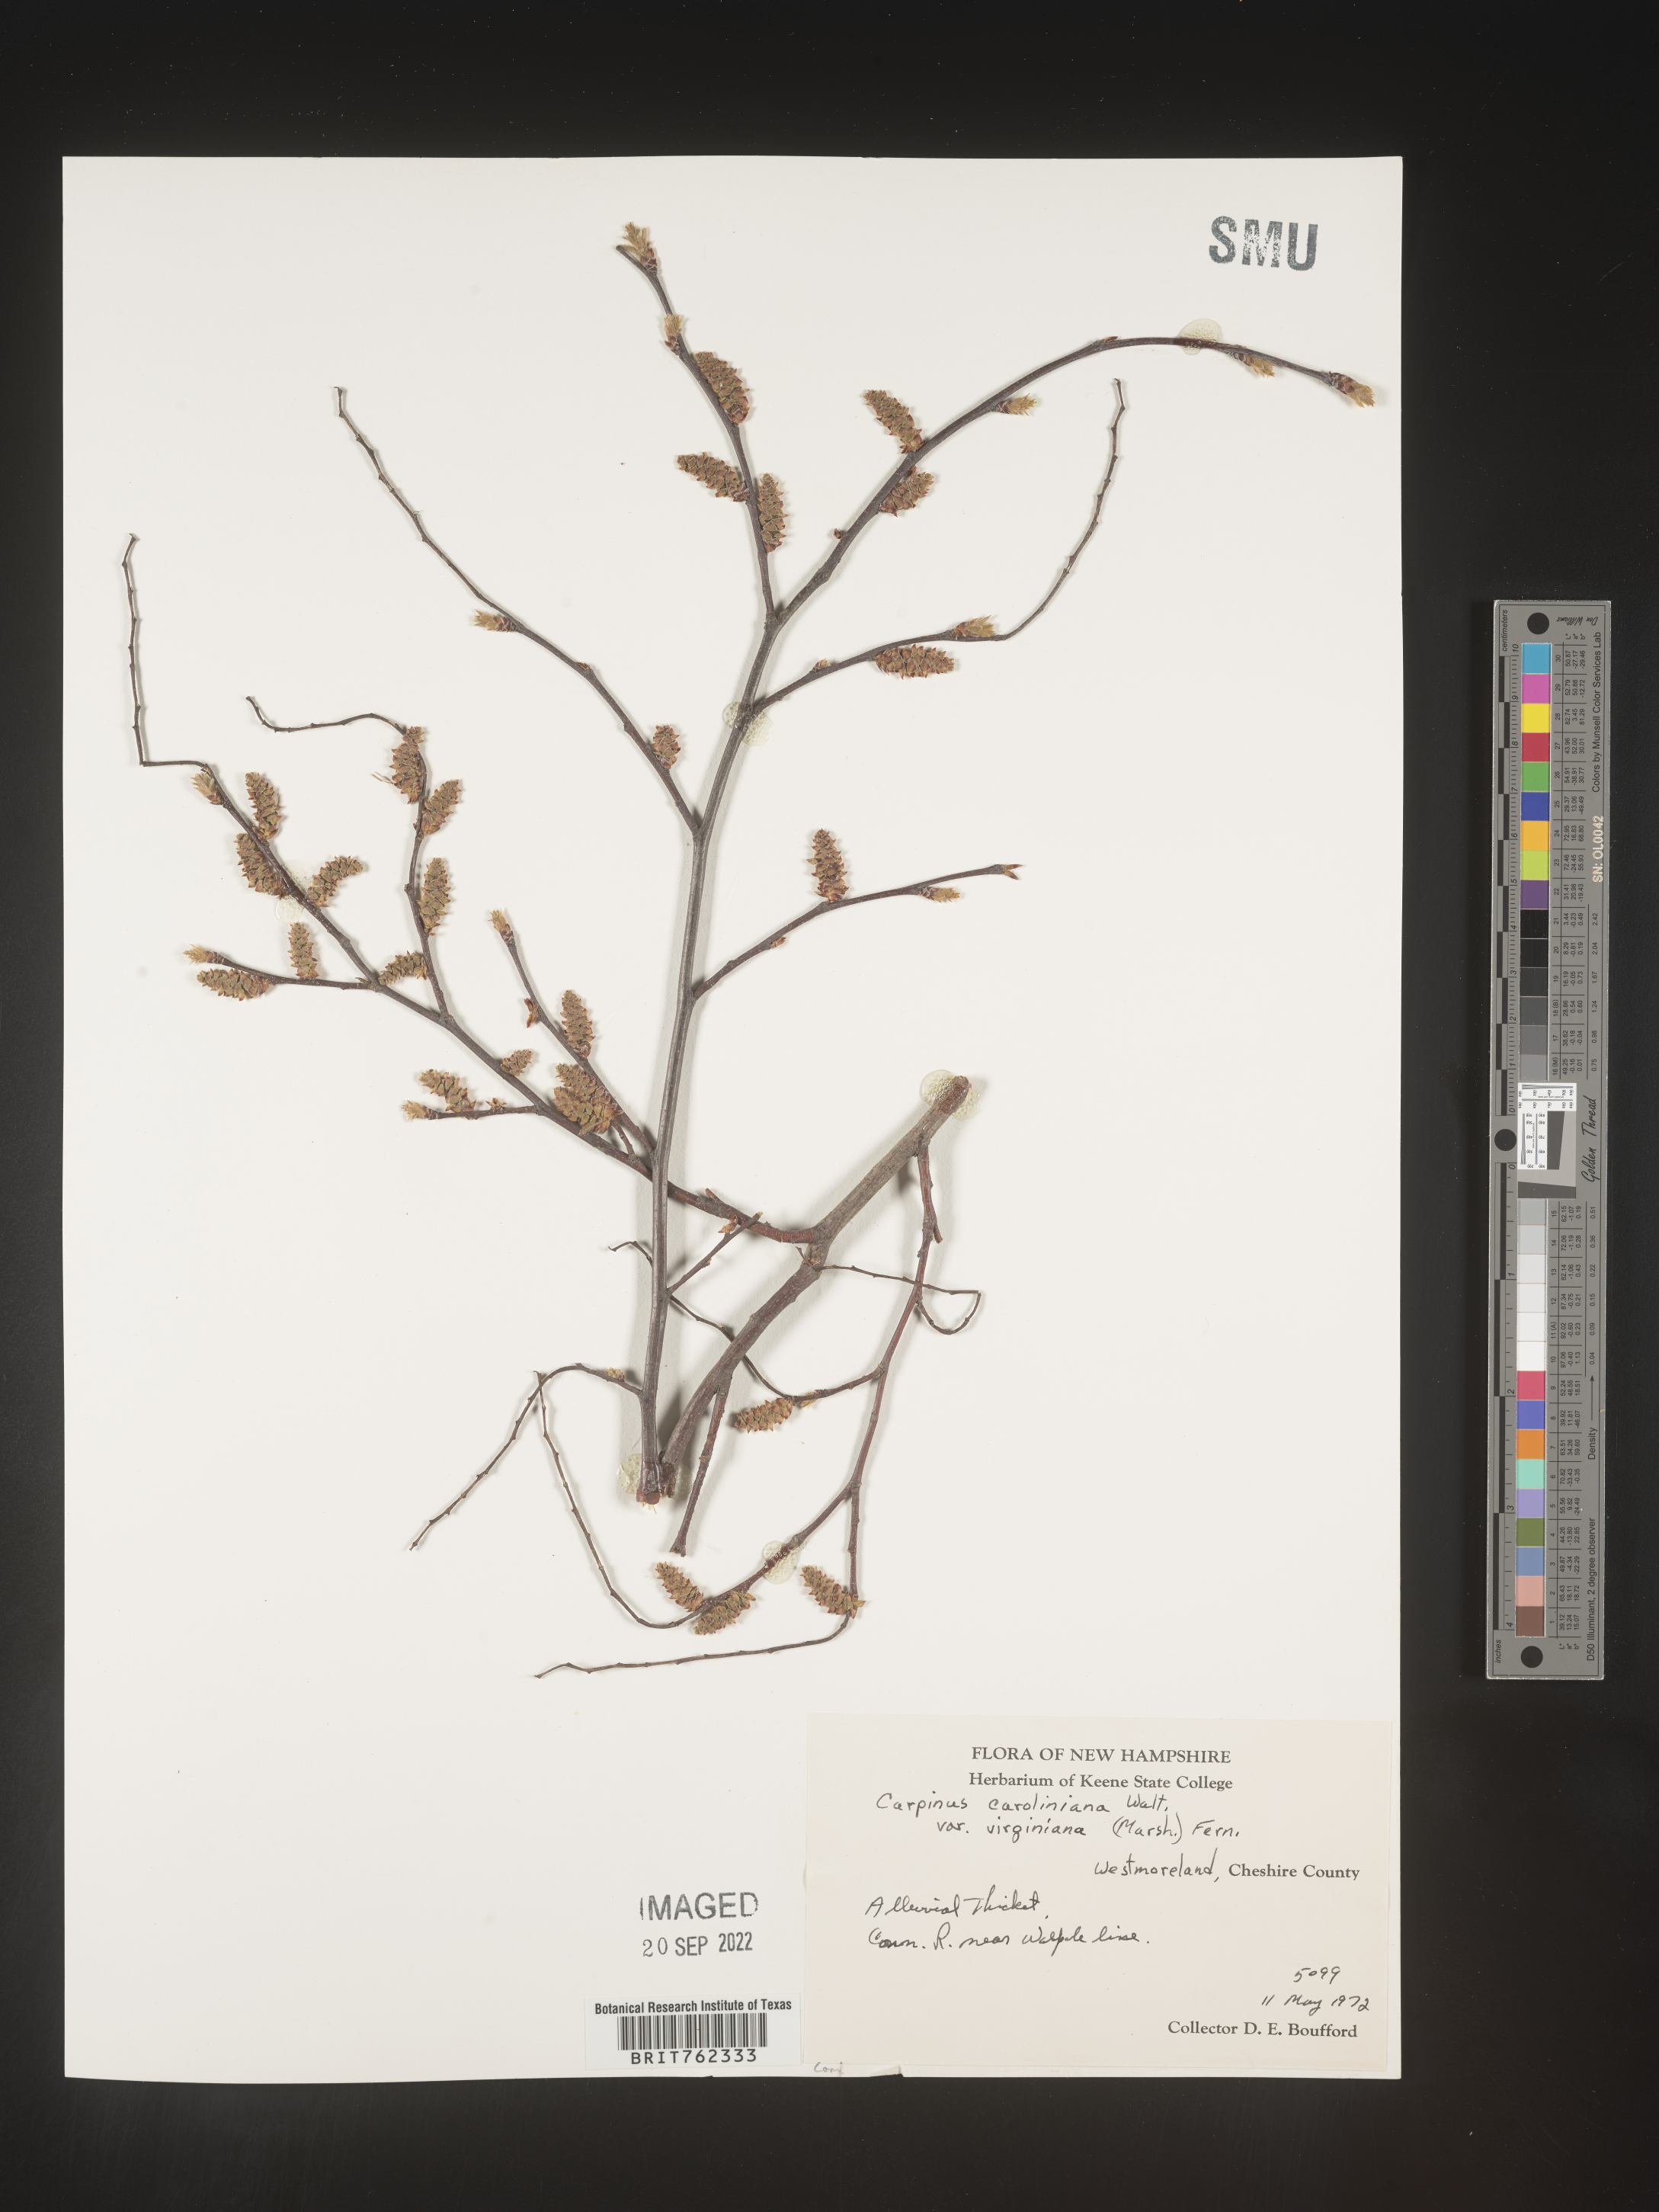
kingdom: Plantae
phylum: Tracheophyta
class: Magnoliopsida
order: Fagales
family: Betulaceae
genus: Carpinus
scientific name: Carpinus caroliniana
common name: American hornbeam
